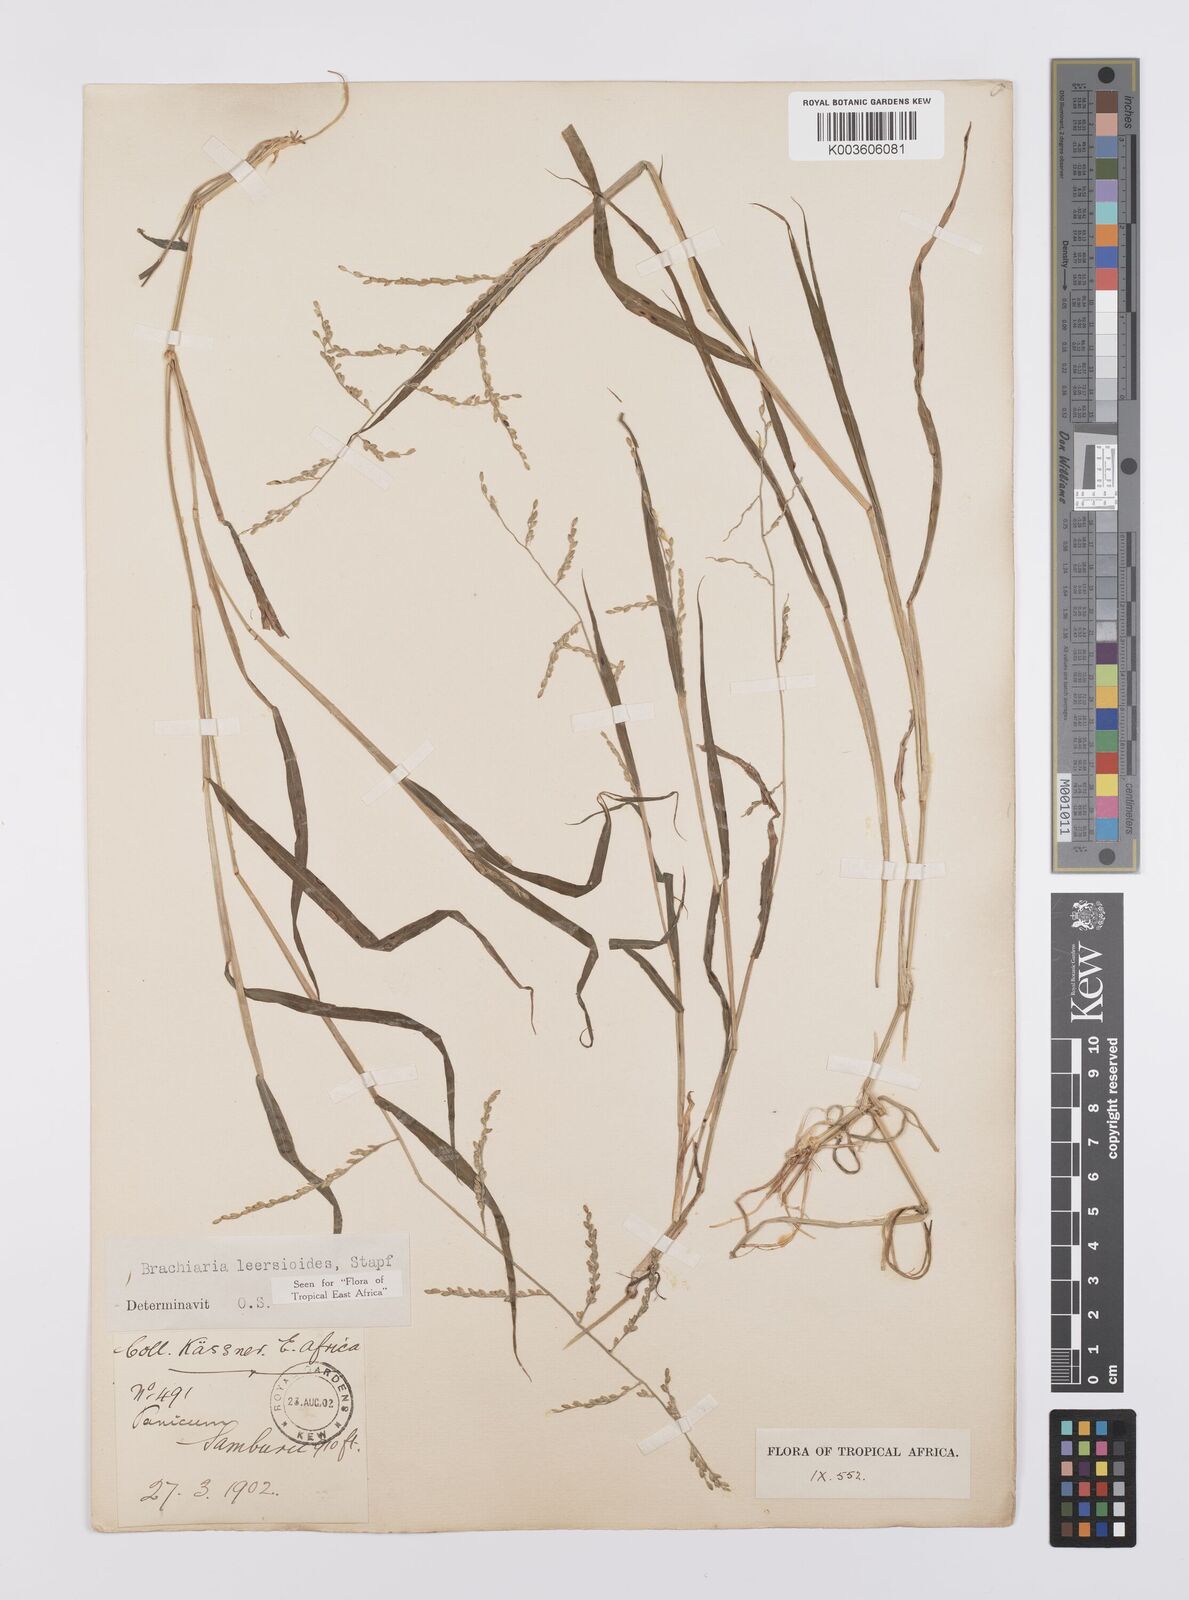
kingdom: Plantae
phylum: Tracheophyta
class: Liliopsida
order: Poales
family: Poaceae
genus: Urochloa
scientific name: Urochloa leersioides
